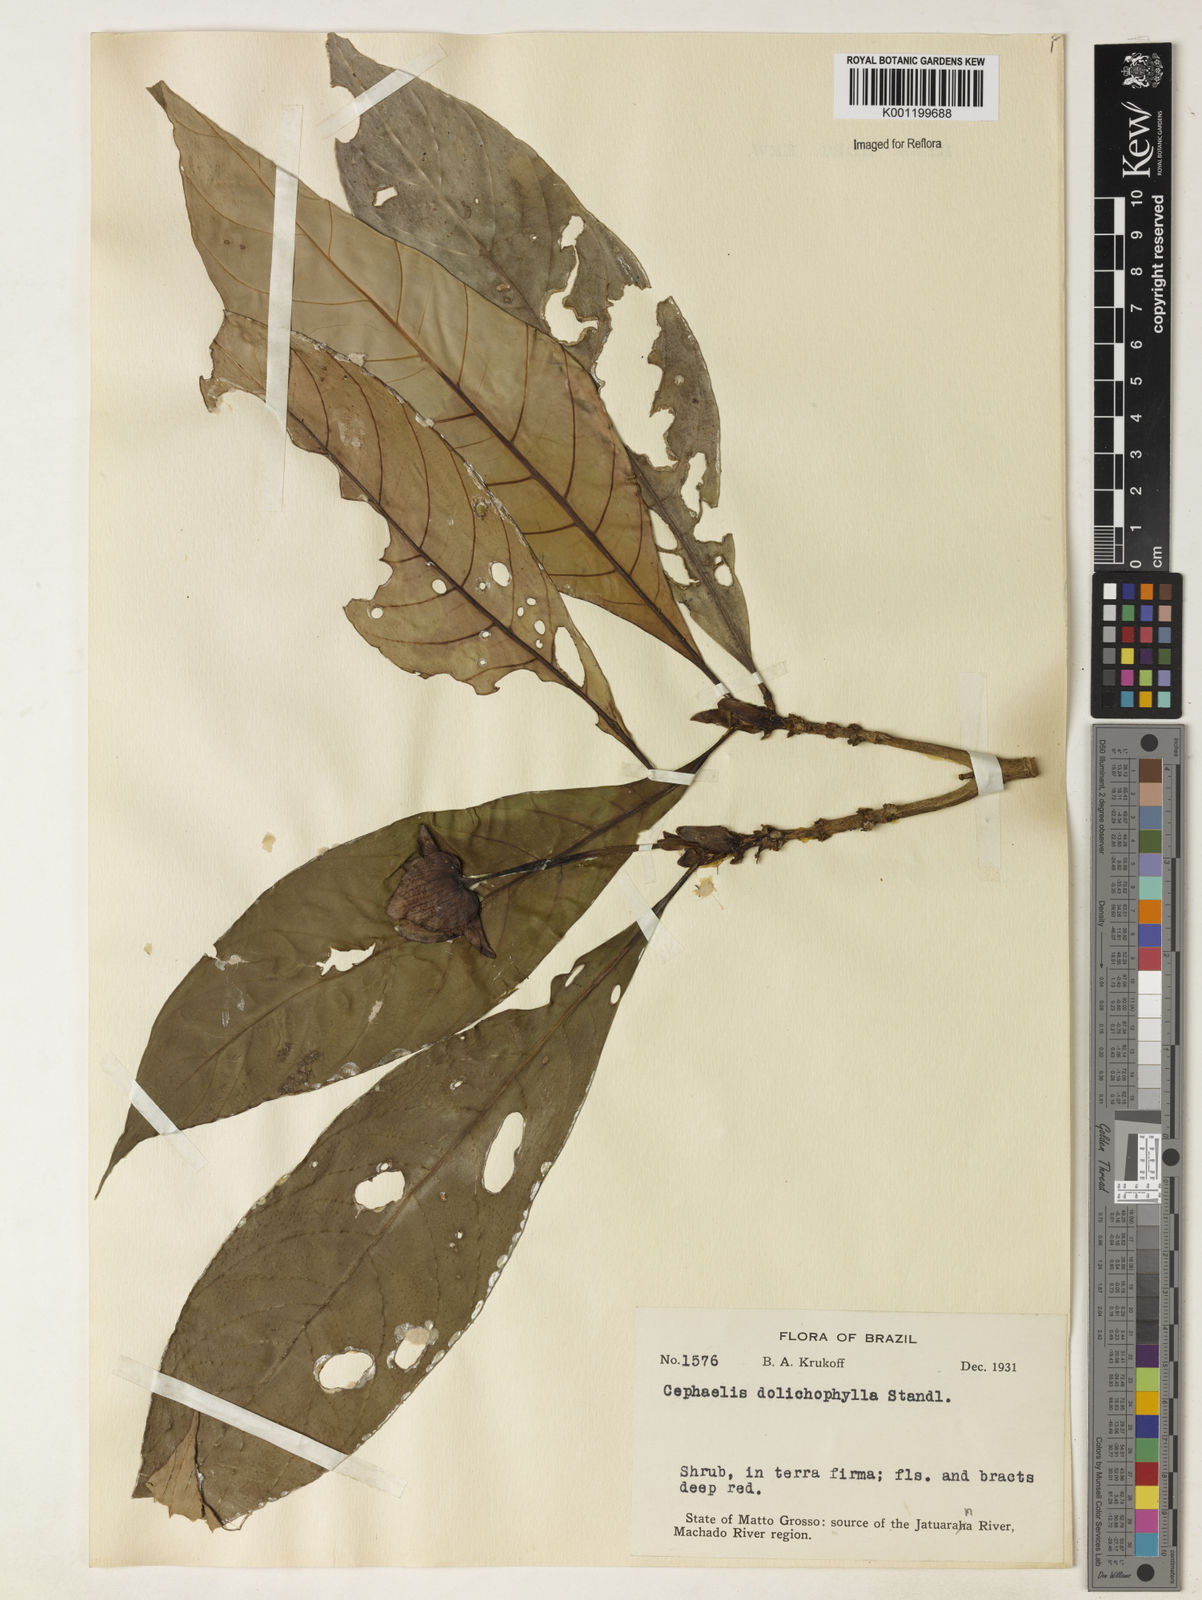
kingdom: Plantae
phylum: Tracheophyta
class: Magnoliopsida
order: Gentianales
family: Rubiaceae
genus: Carapichea
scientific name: Carapichea dolichophylla
